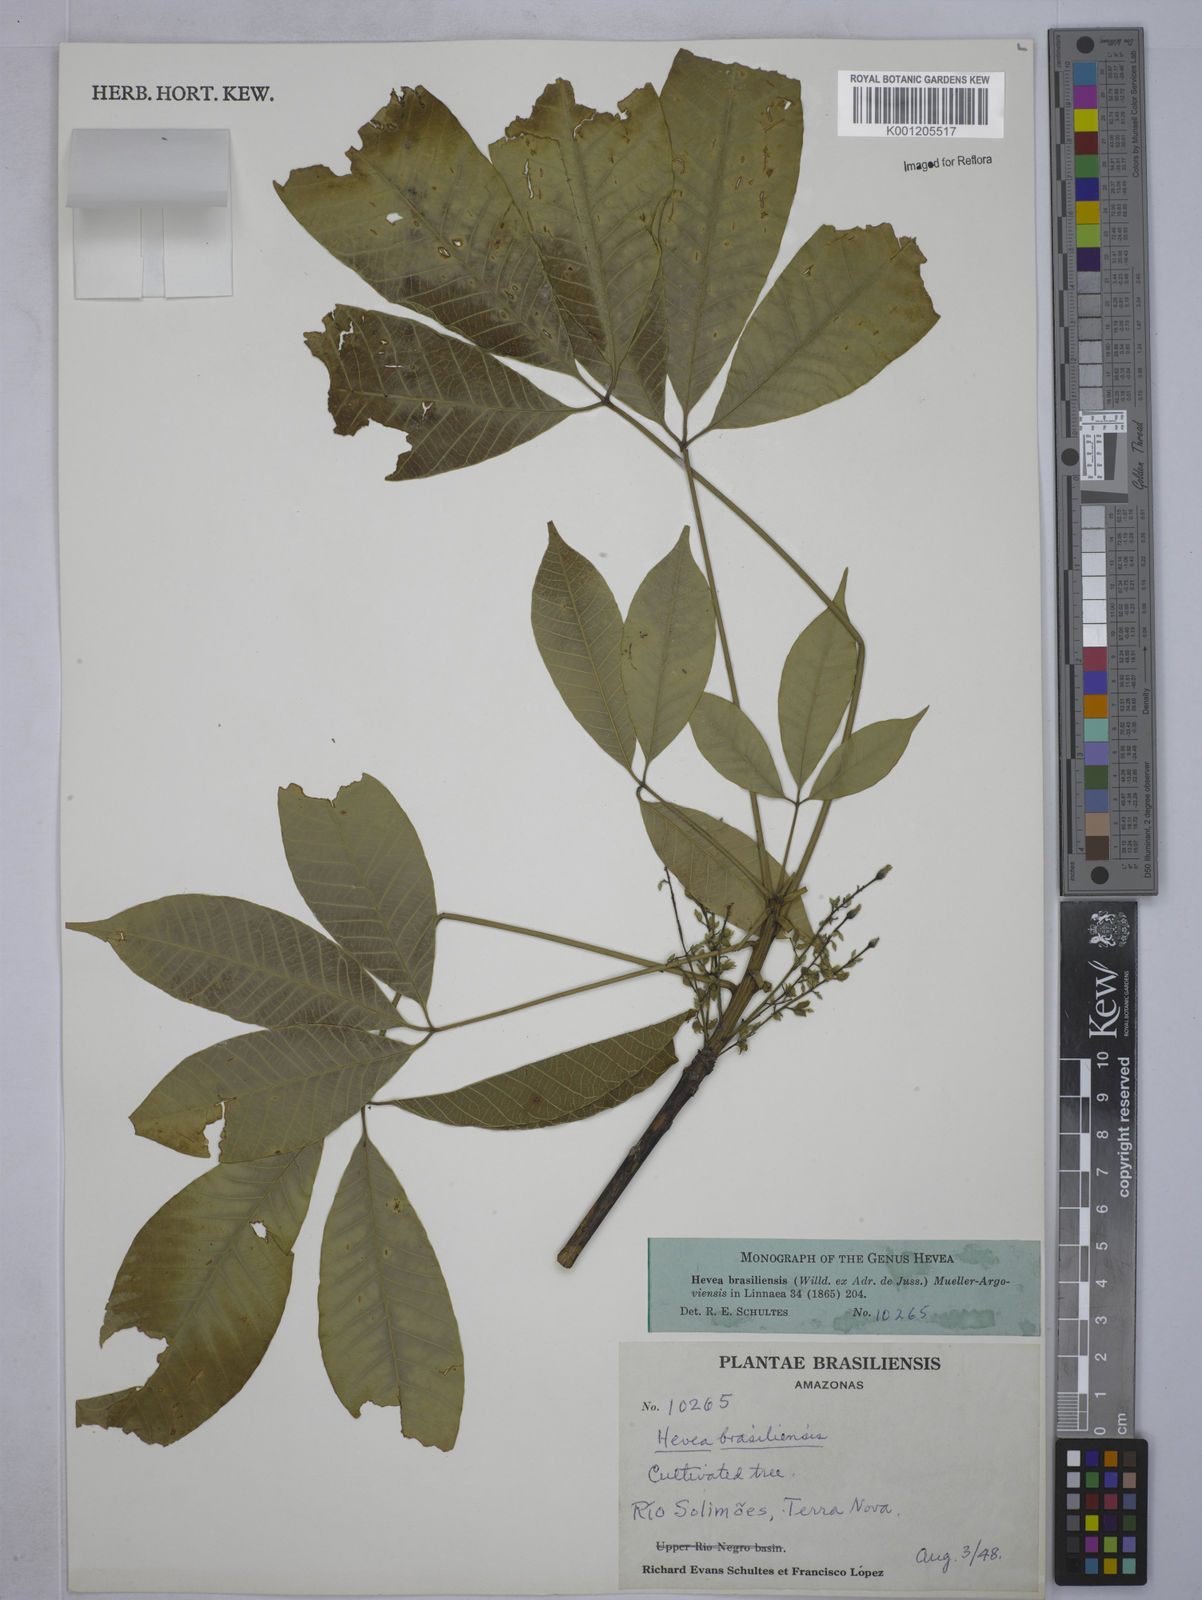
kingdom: Plantae
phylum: Tracheophyta
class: Magnoliopsida
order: Malpighiales
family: Euphorbiaceae
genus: Hevea
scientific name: Hevea
